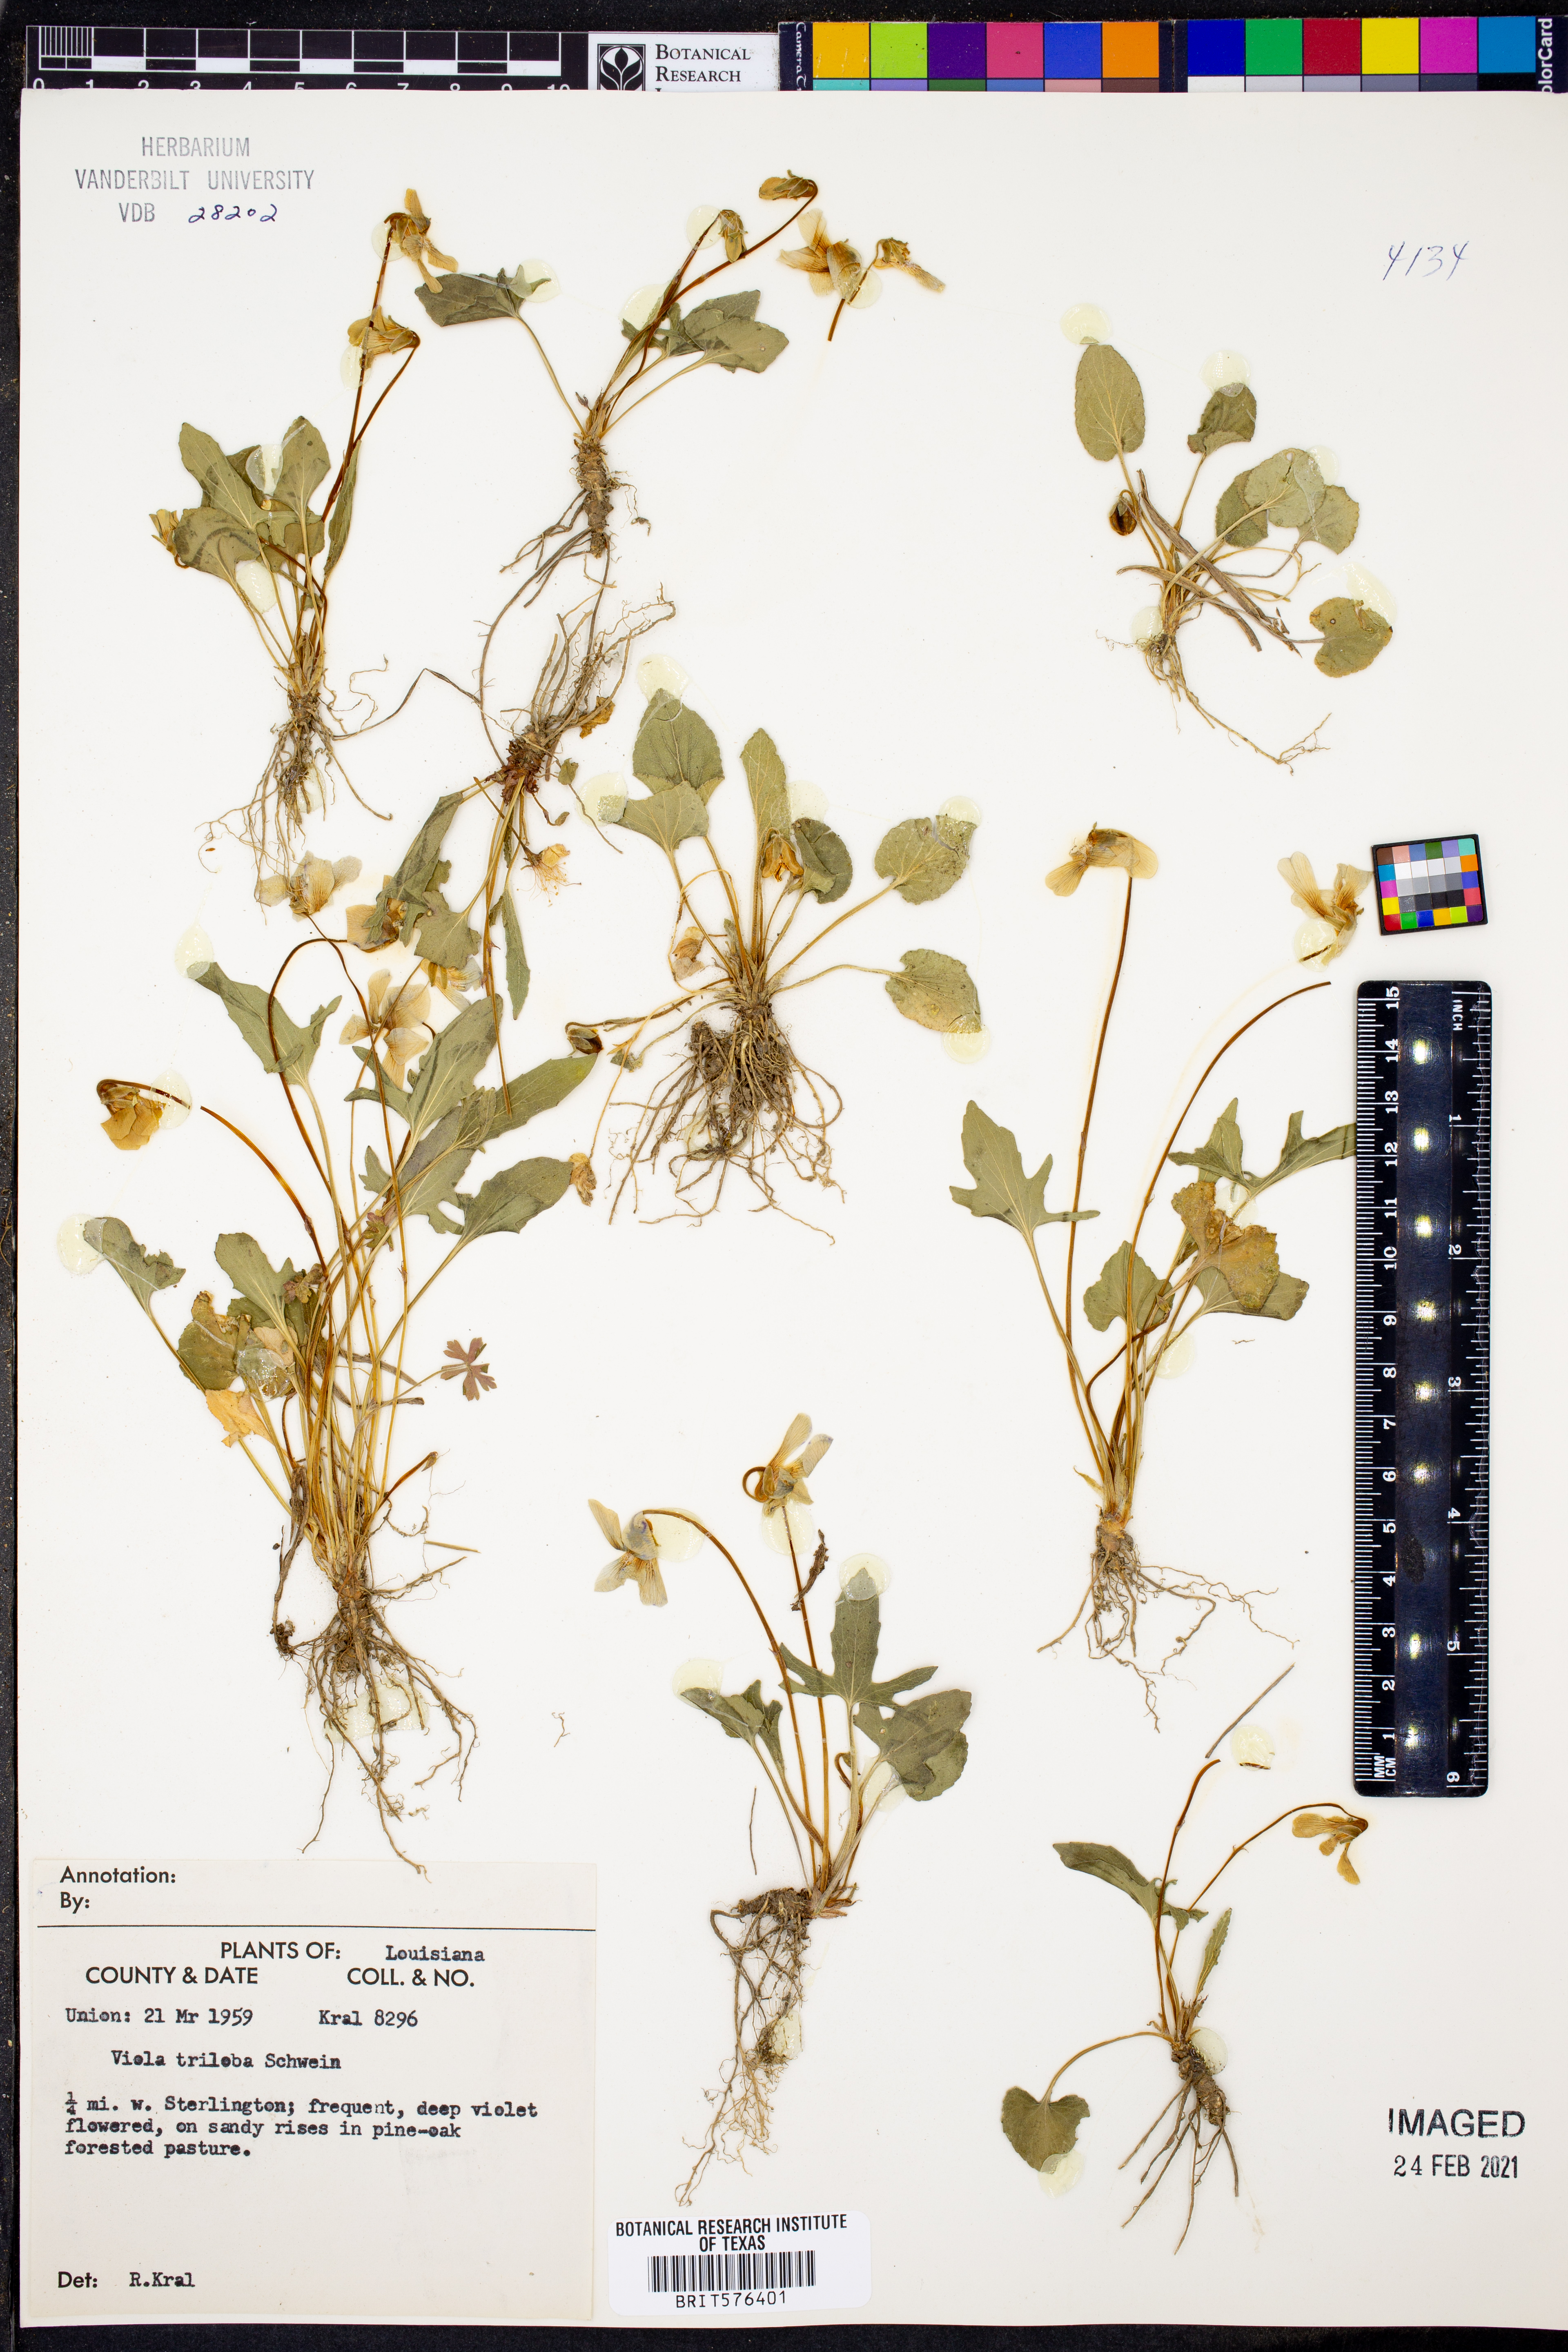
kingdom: Plantae
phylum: Tracheophyta
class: Magnoliopsida
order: Malpighiales
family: Violaceae
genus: Viola
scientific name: Viola palmata
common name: Early blue violet
